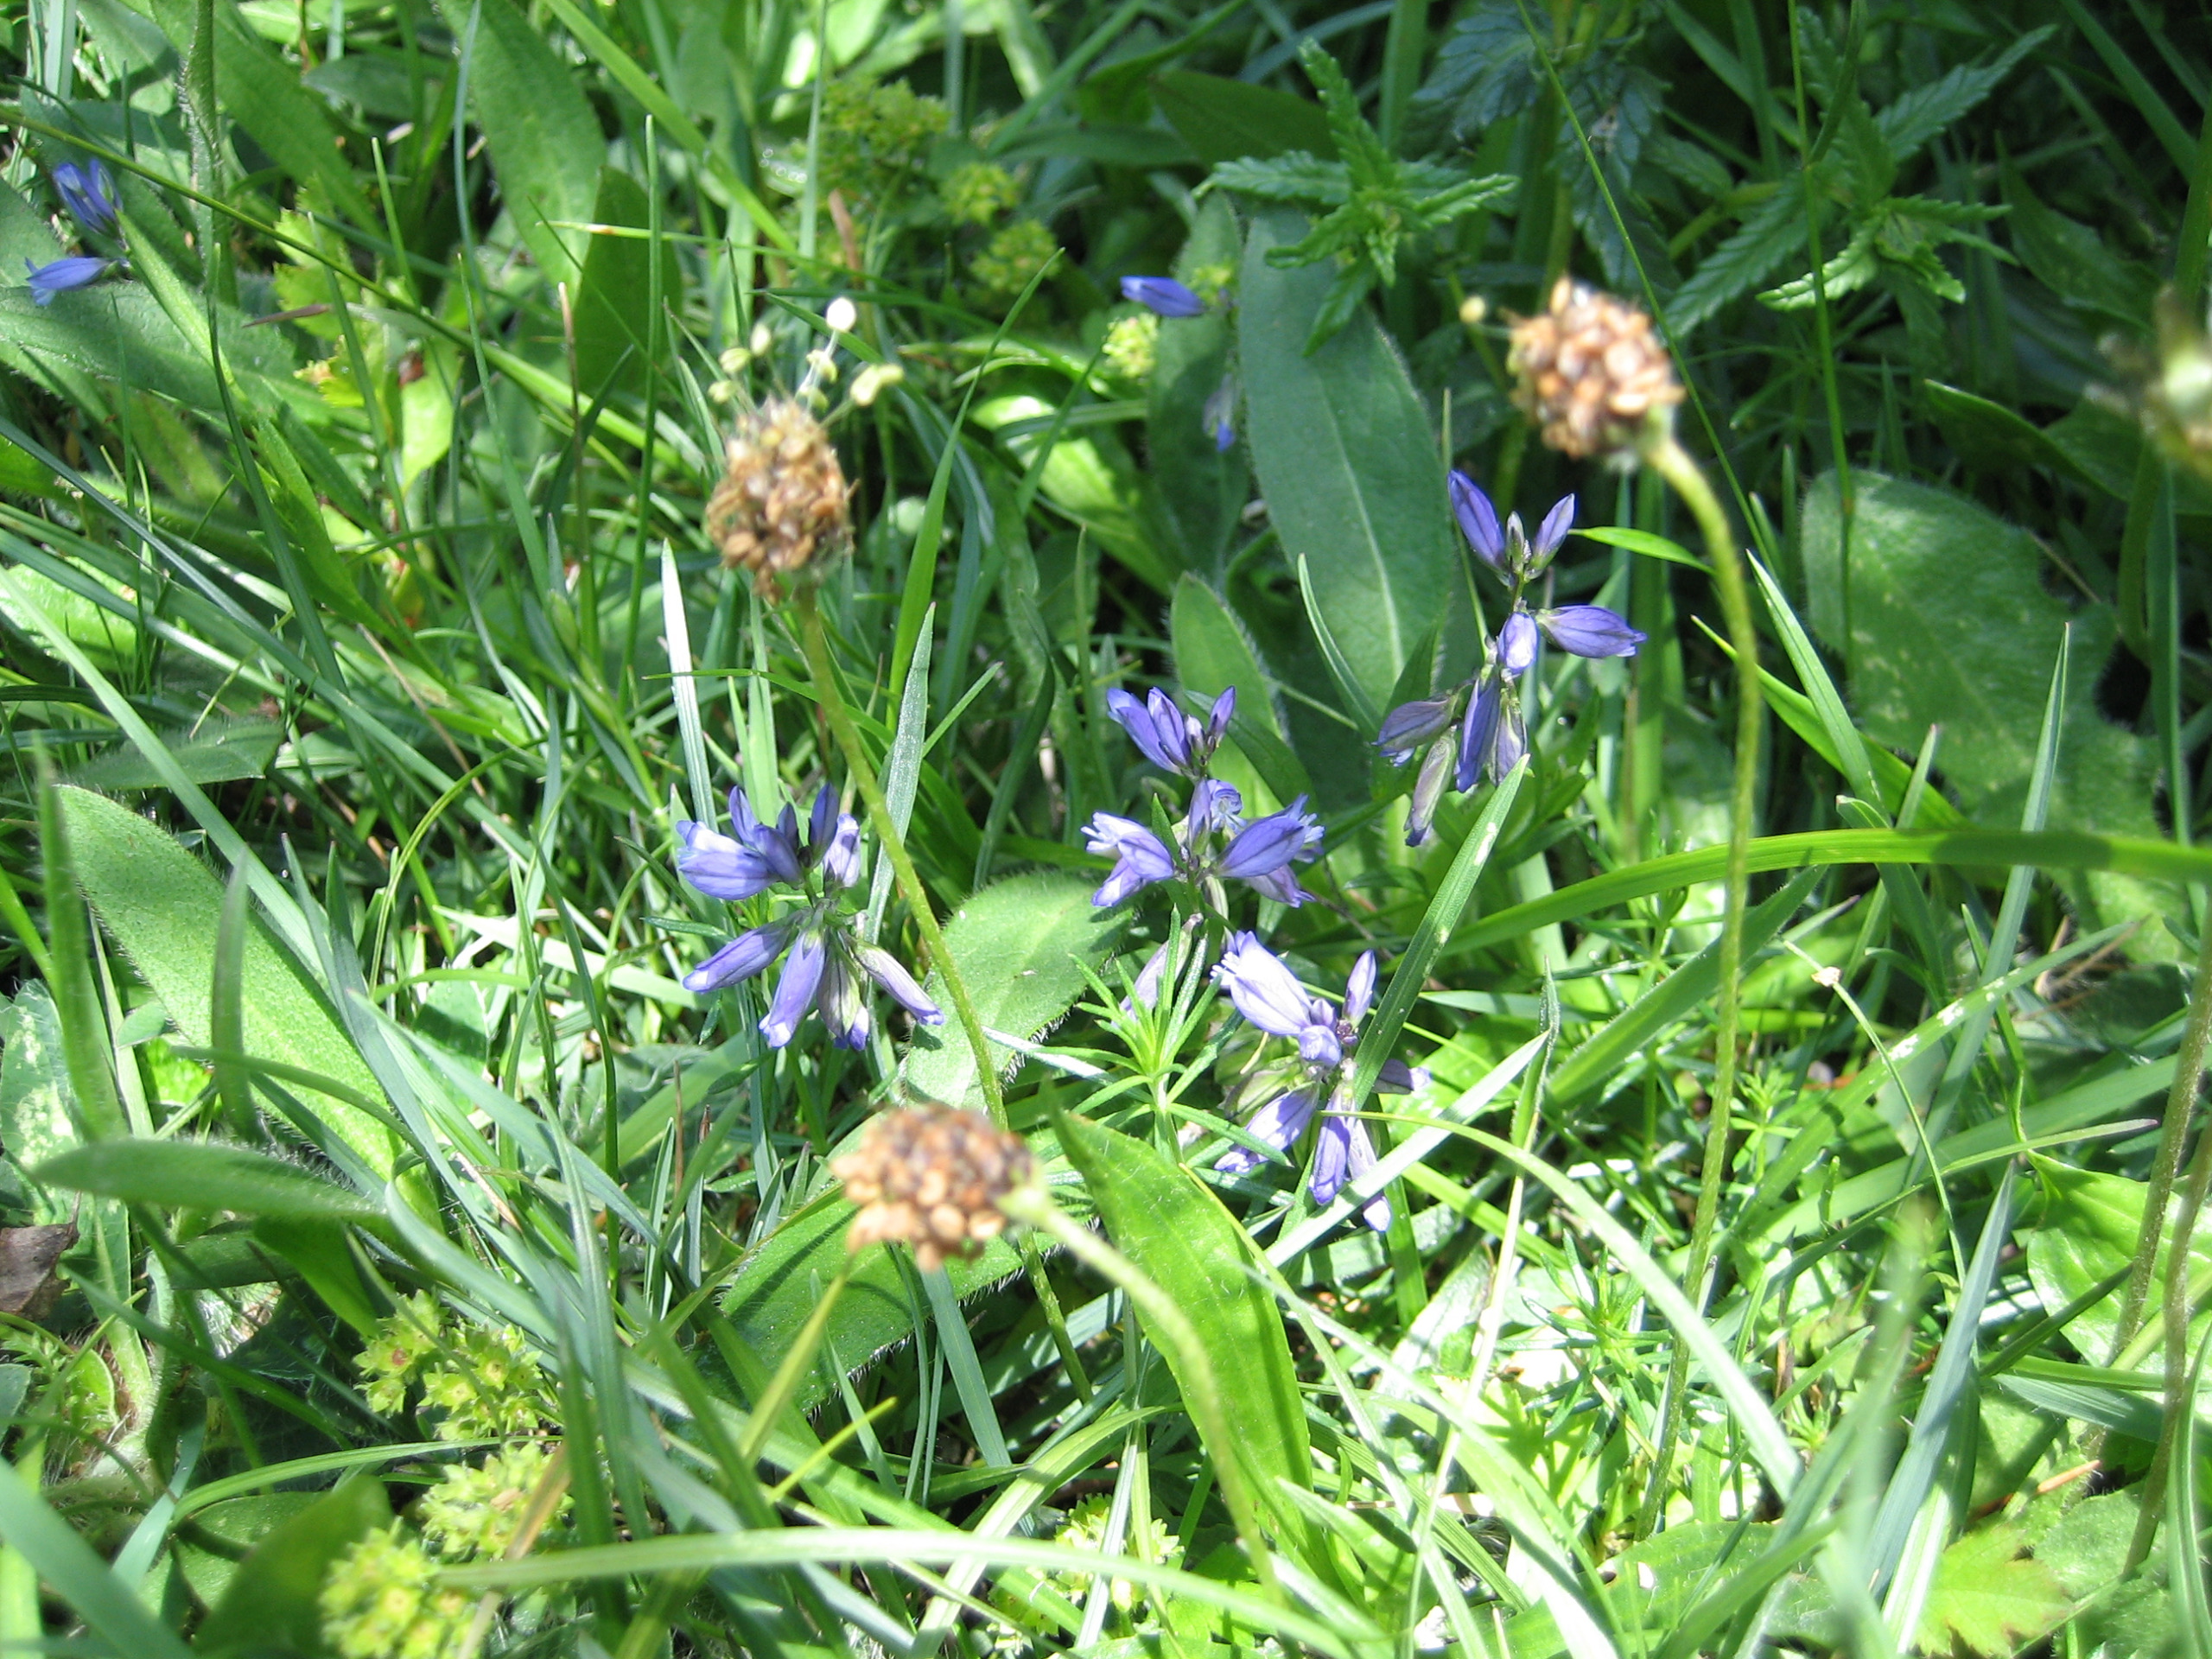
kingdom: Plantae
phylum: Tracheophyta
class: Magnoliopsida
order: Fabales
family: Polygalaceae
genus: Polygala
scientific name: Polygala vulgaris
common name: Almindelig mælkeurt
